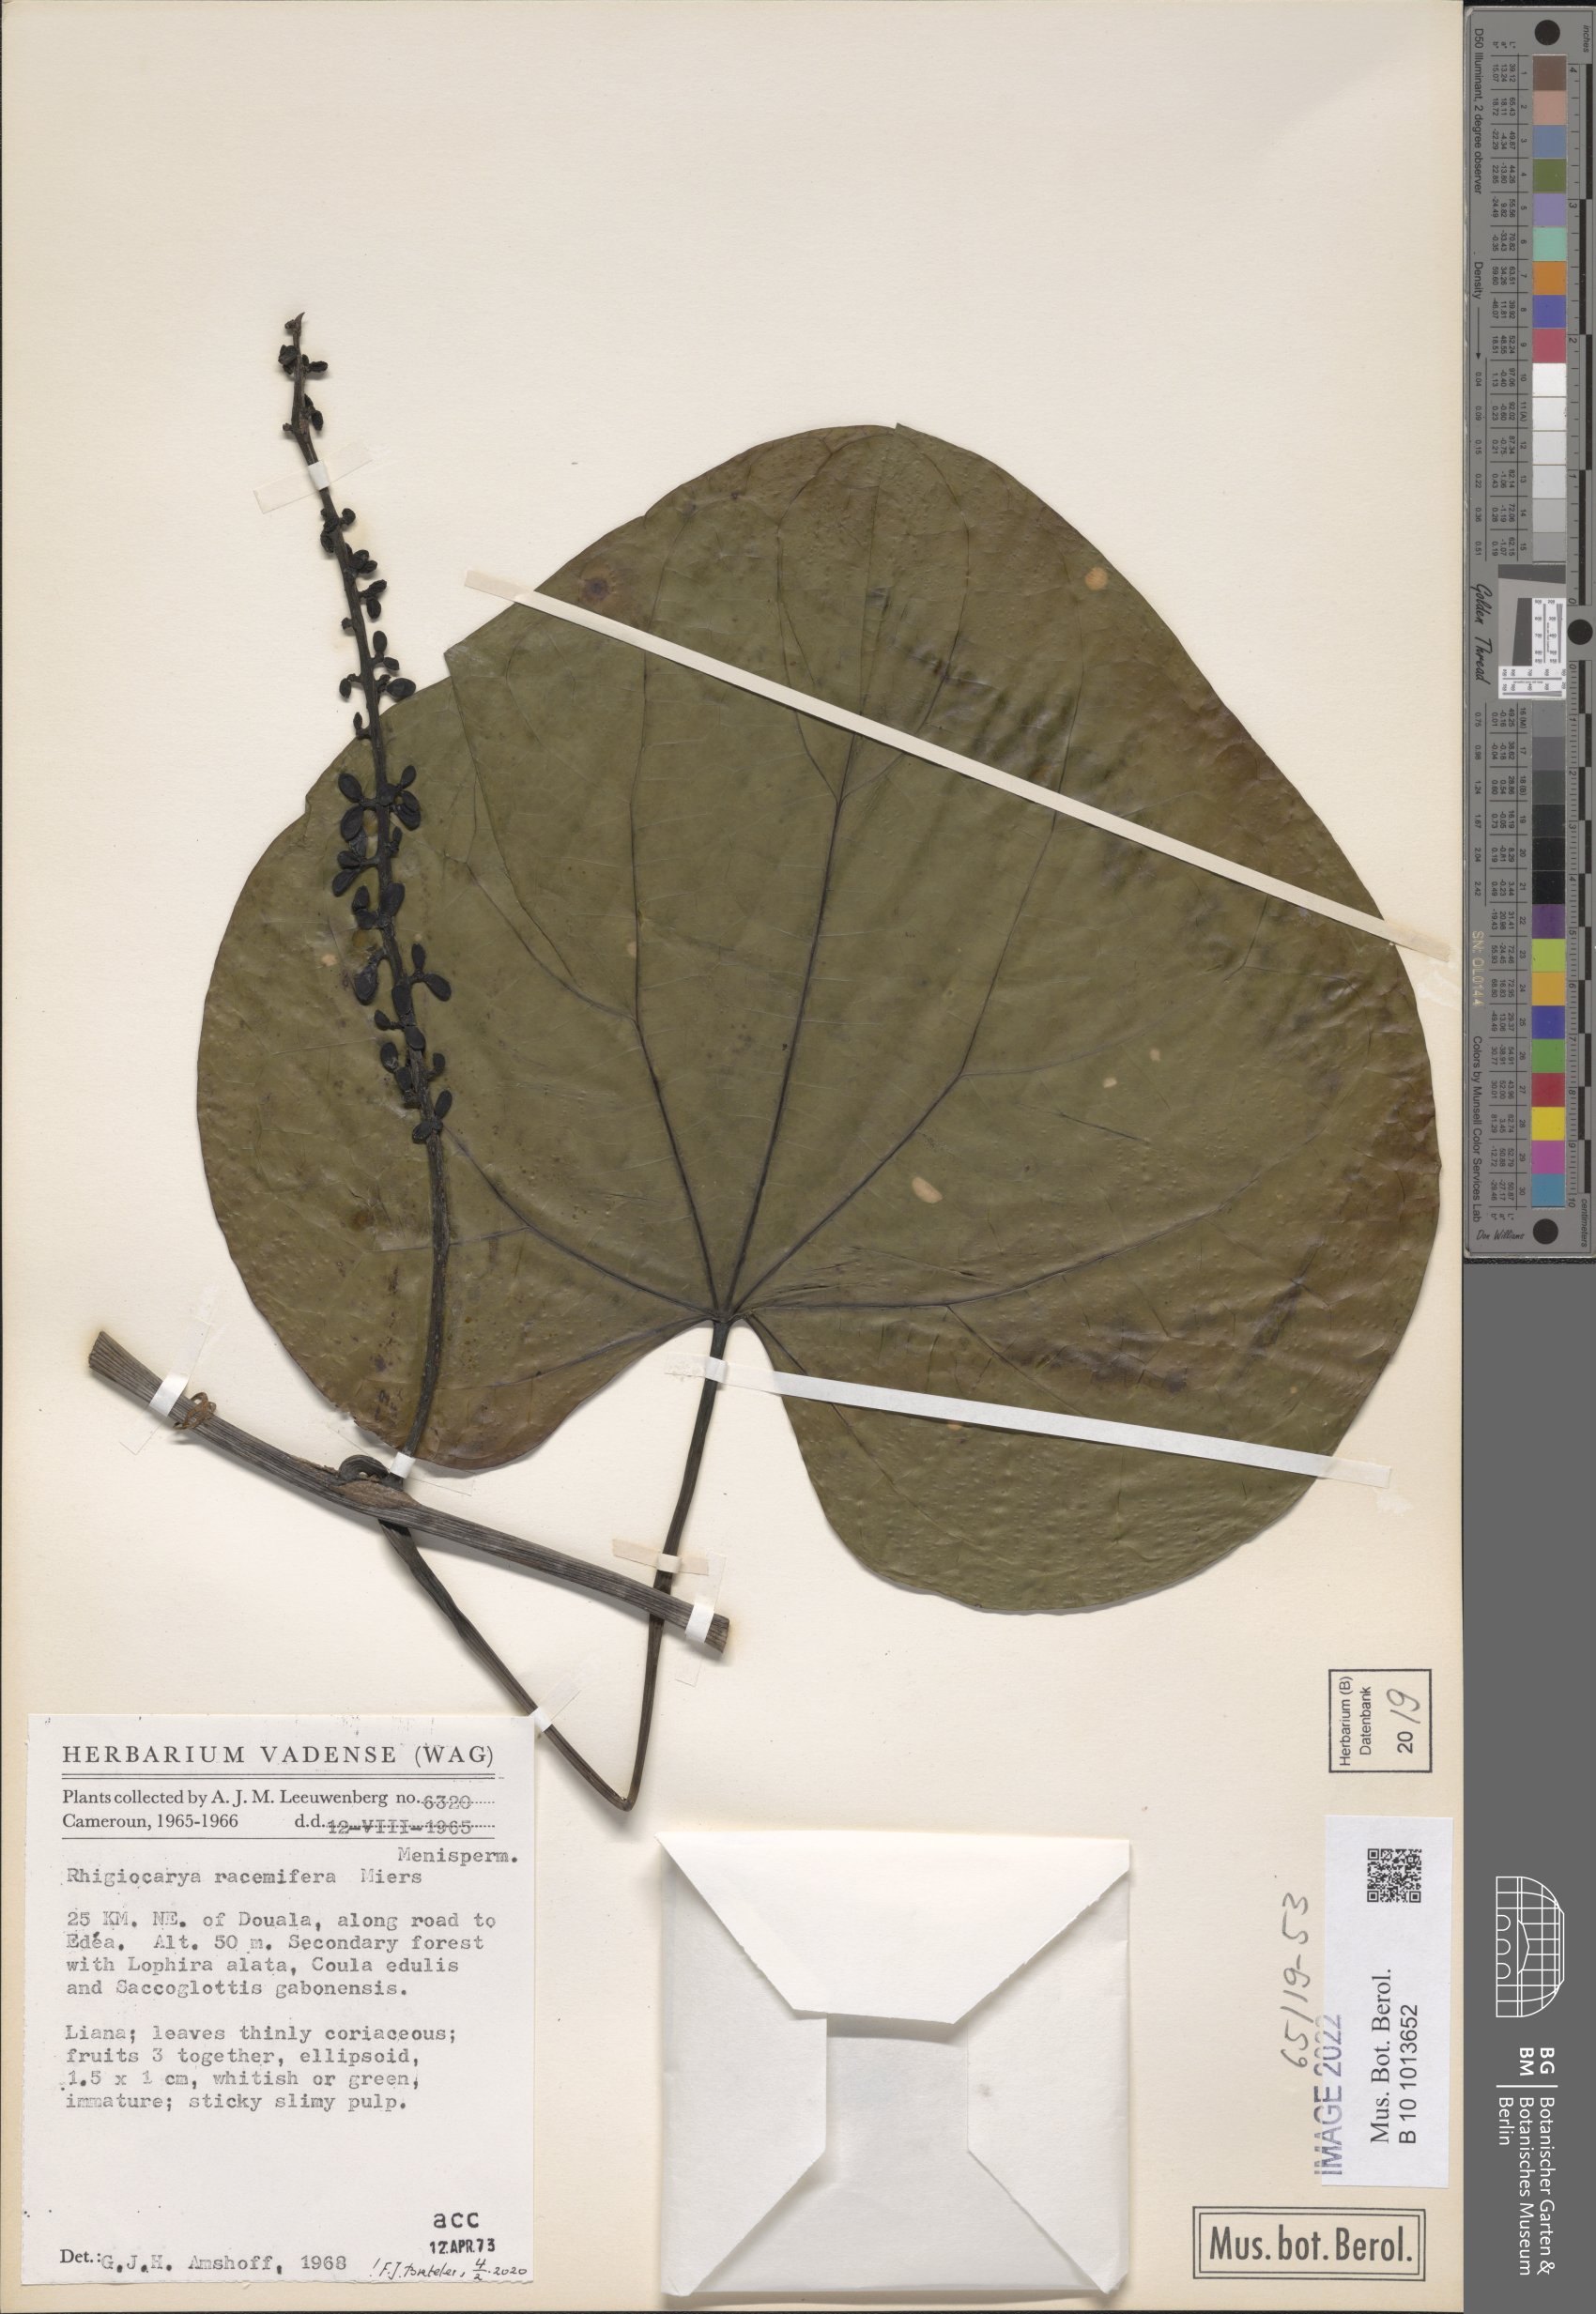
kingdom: Plantae
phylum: Tracheophyta
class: Magnoliopsida
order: Ranunculales
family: Menispermaceae
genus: Rhigiocarya
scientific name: Rhigiocarya racemifera
